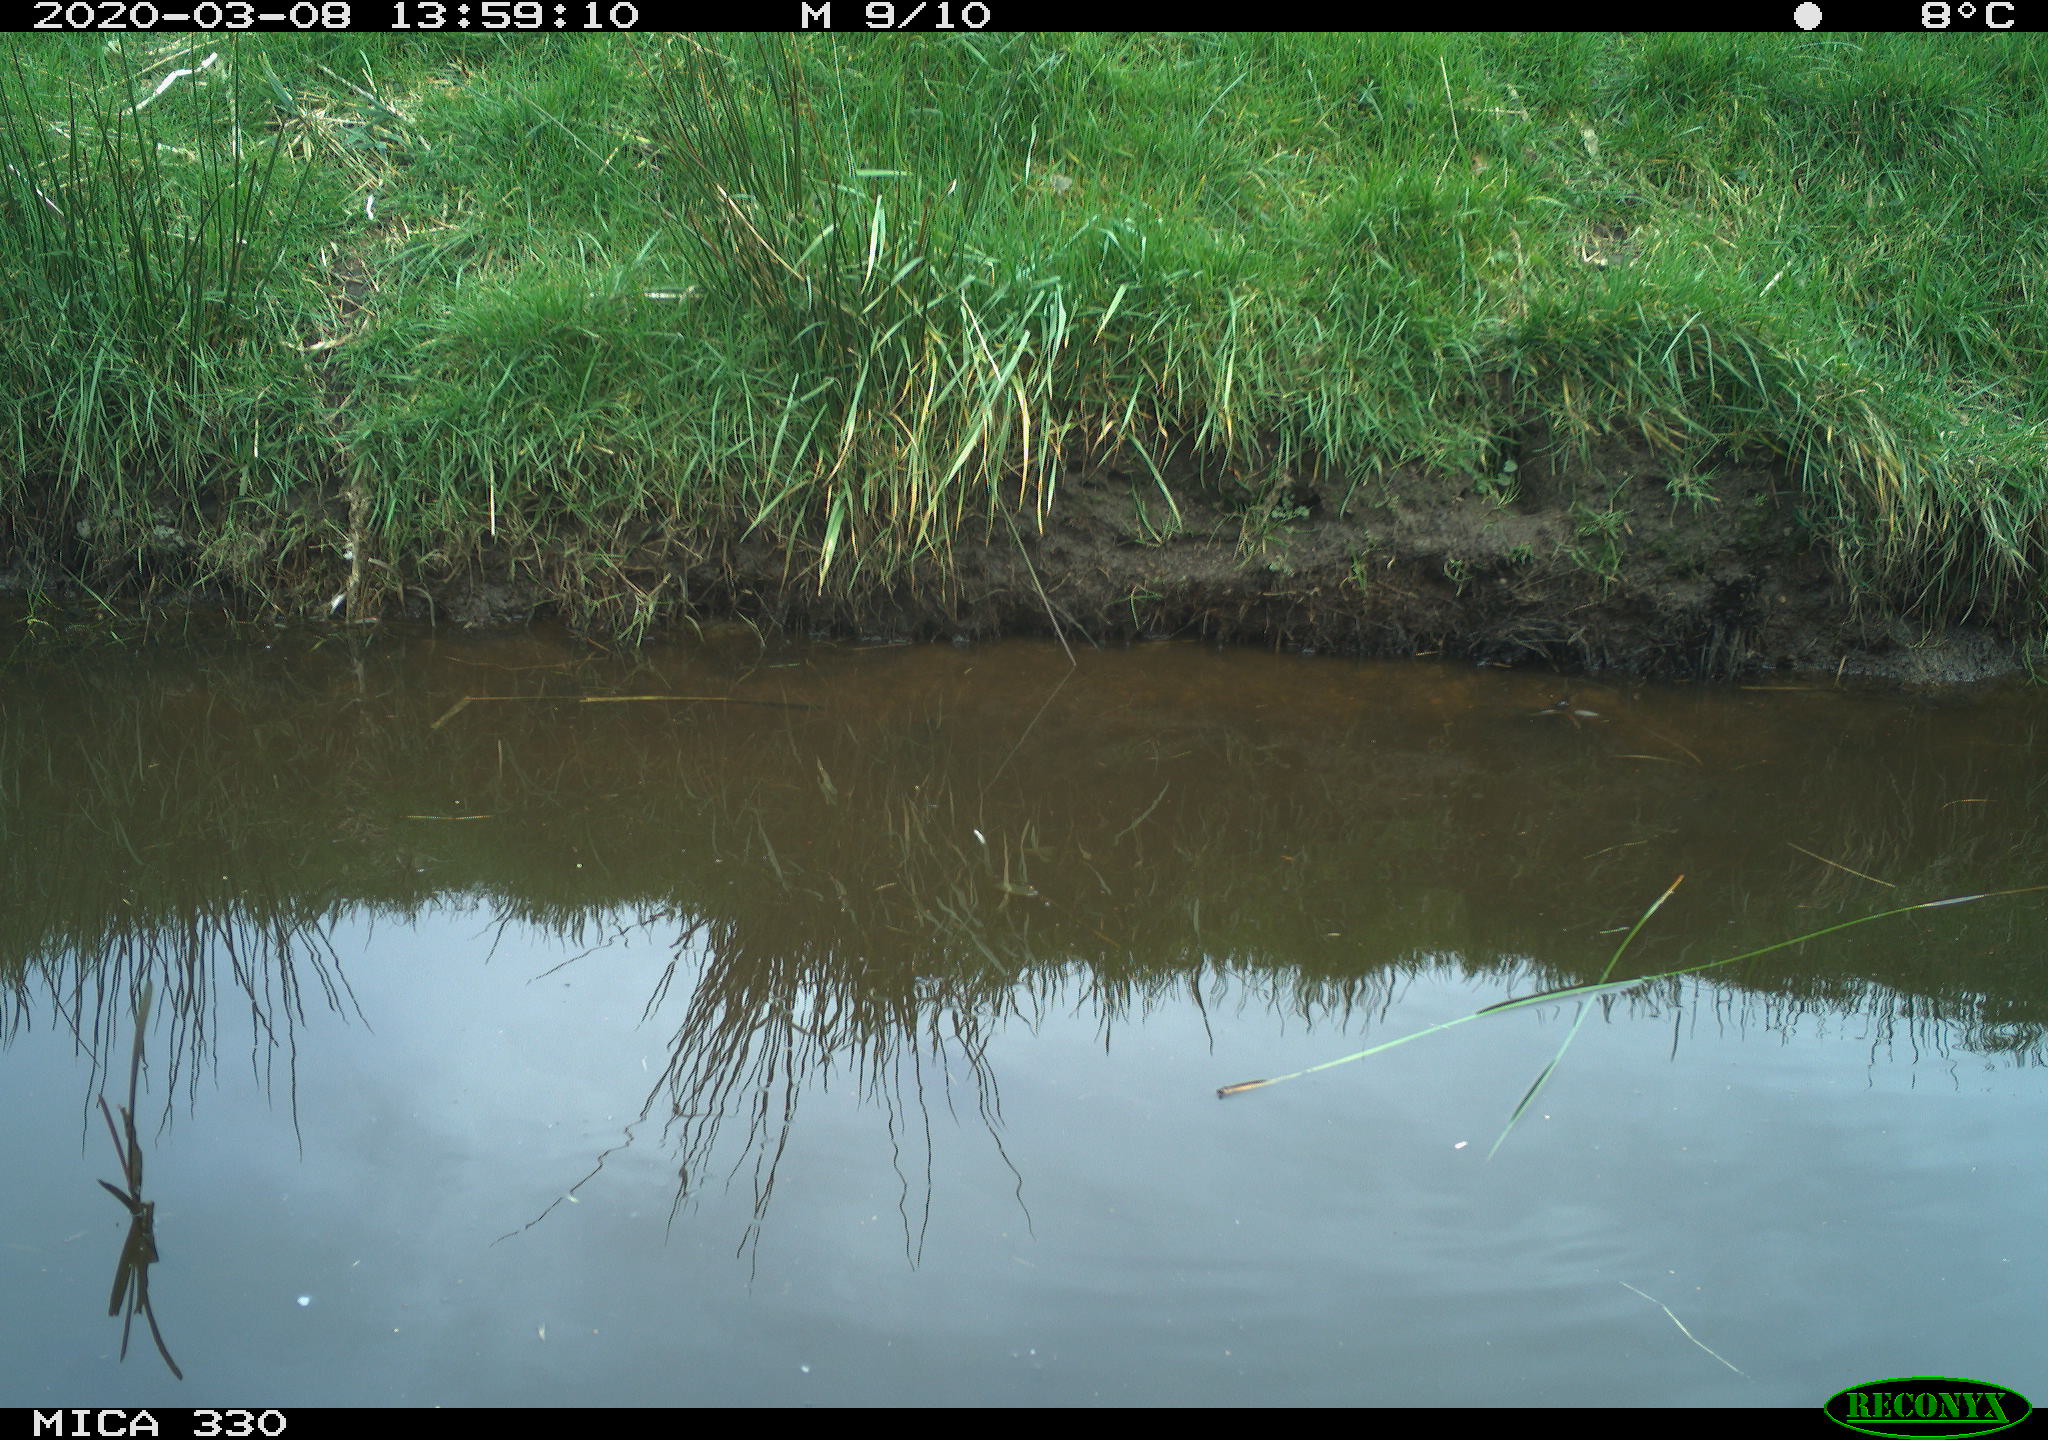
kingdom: Animalia
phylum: Chordata
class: Aves
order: Gruiformes
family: Rallidae
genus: Gallinula
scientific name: Gallinula chloropus
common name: Common moorhen
